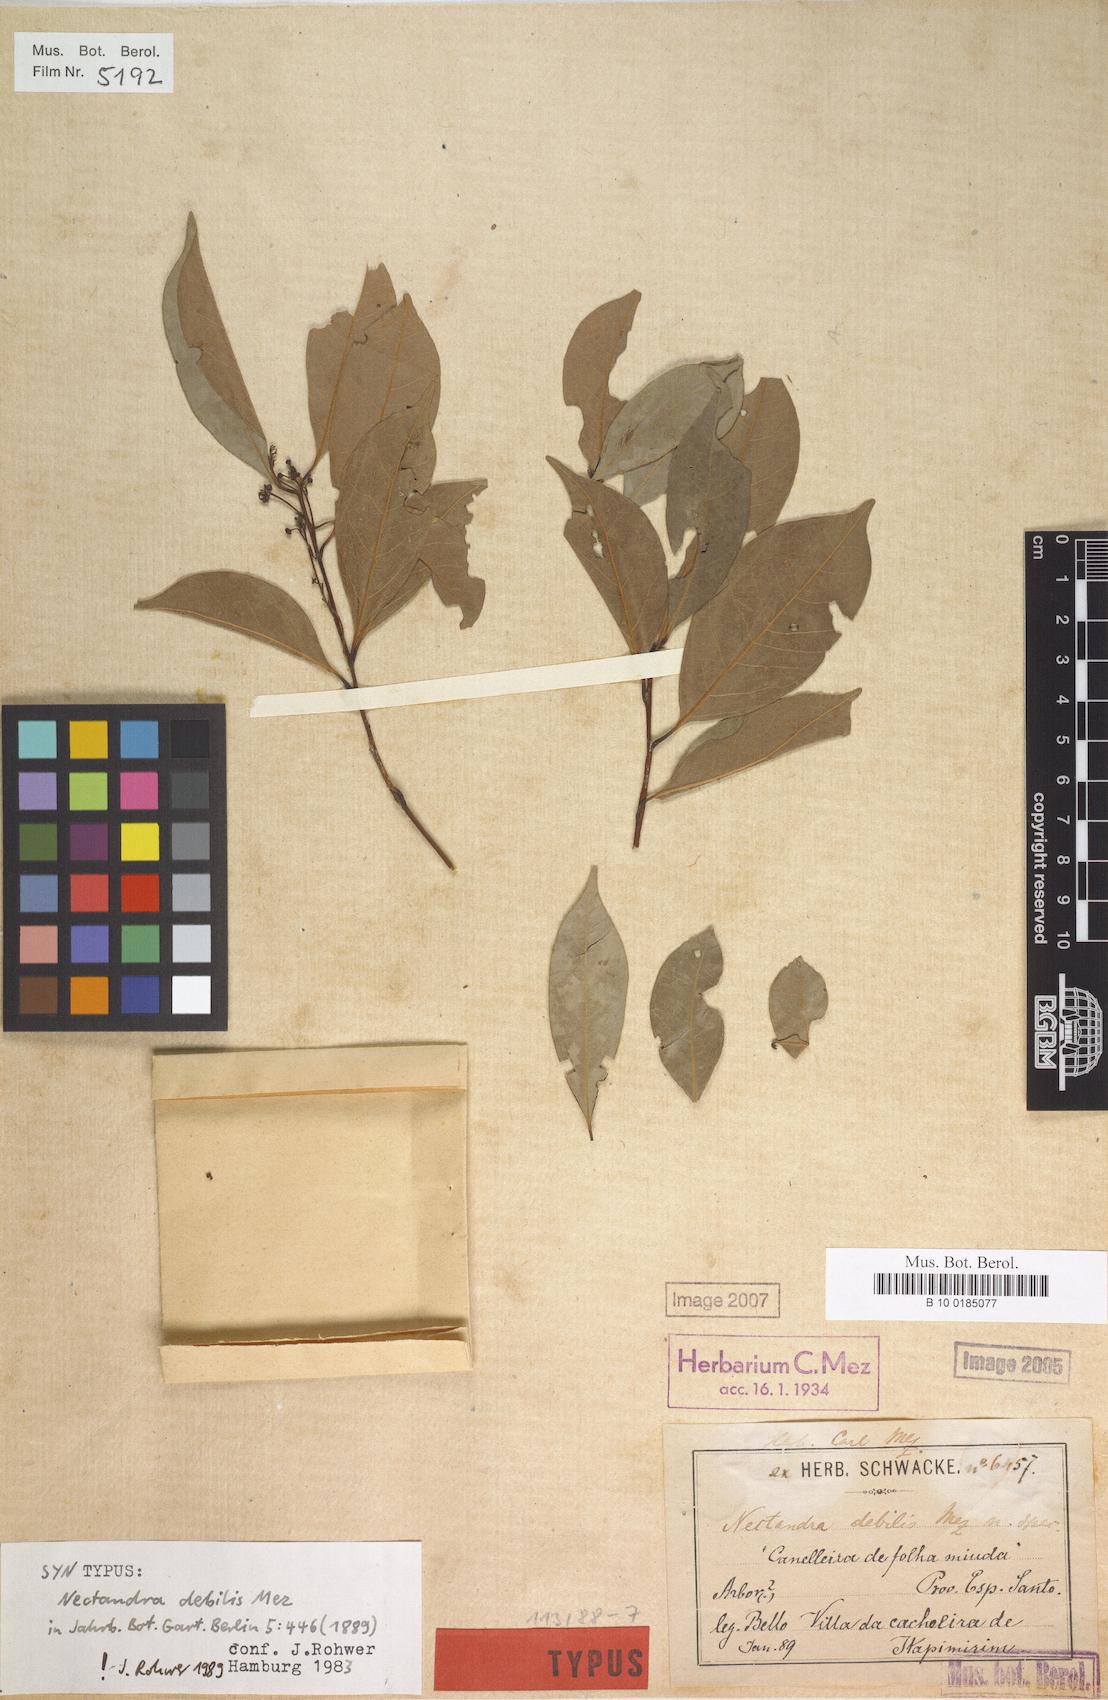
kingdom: Plantae
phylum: Tracheophyta
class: Magnoliopsida
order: Laurales
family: Lauraceae
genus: Nectandra
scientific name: Nectandra debilis
